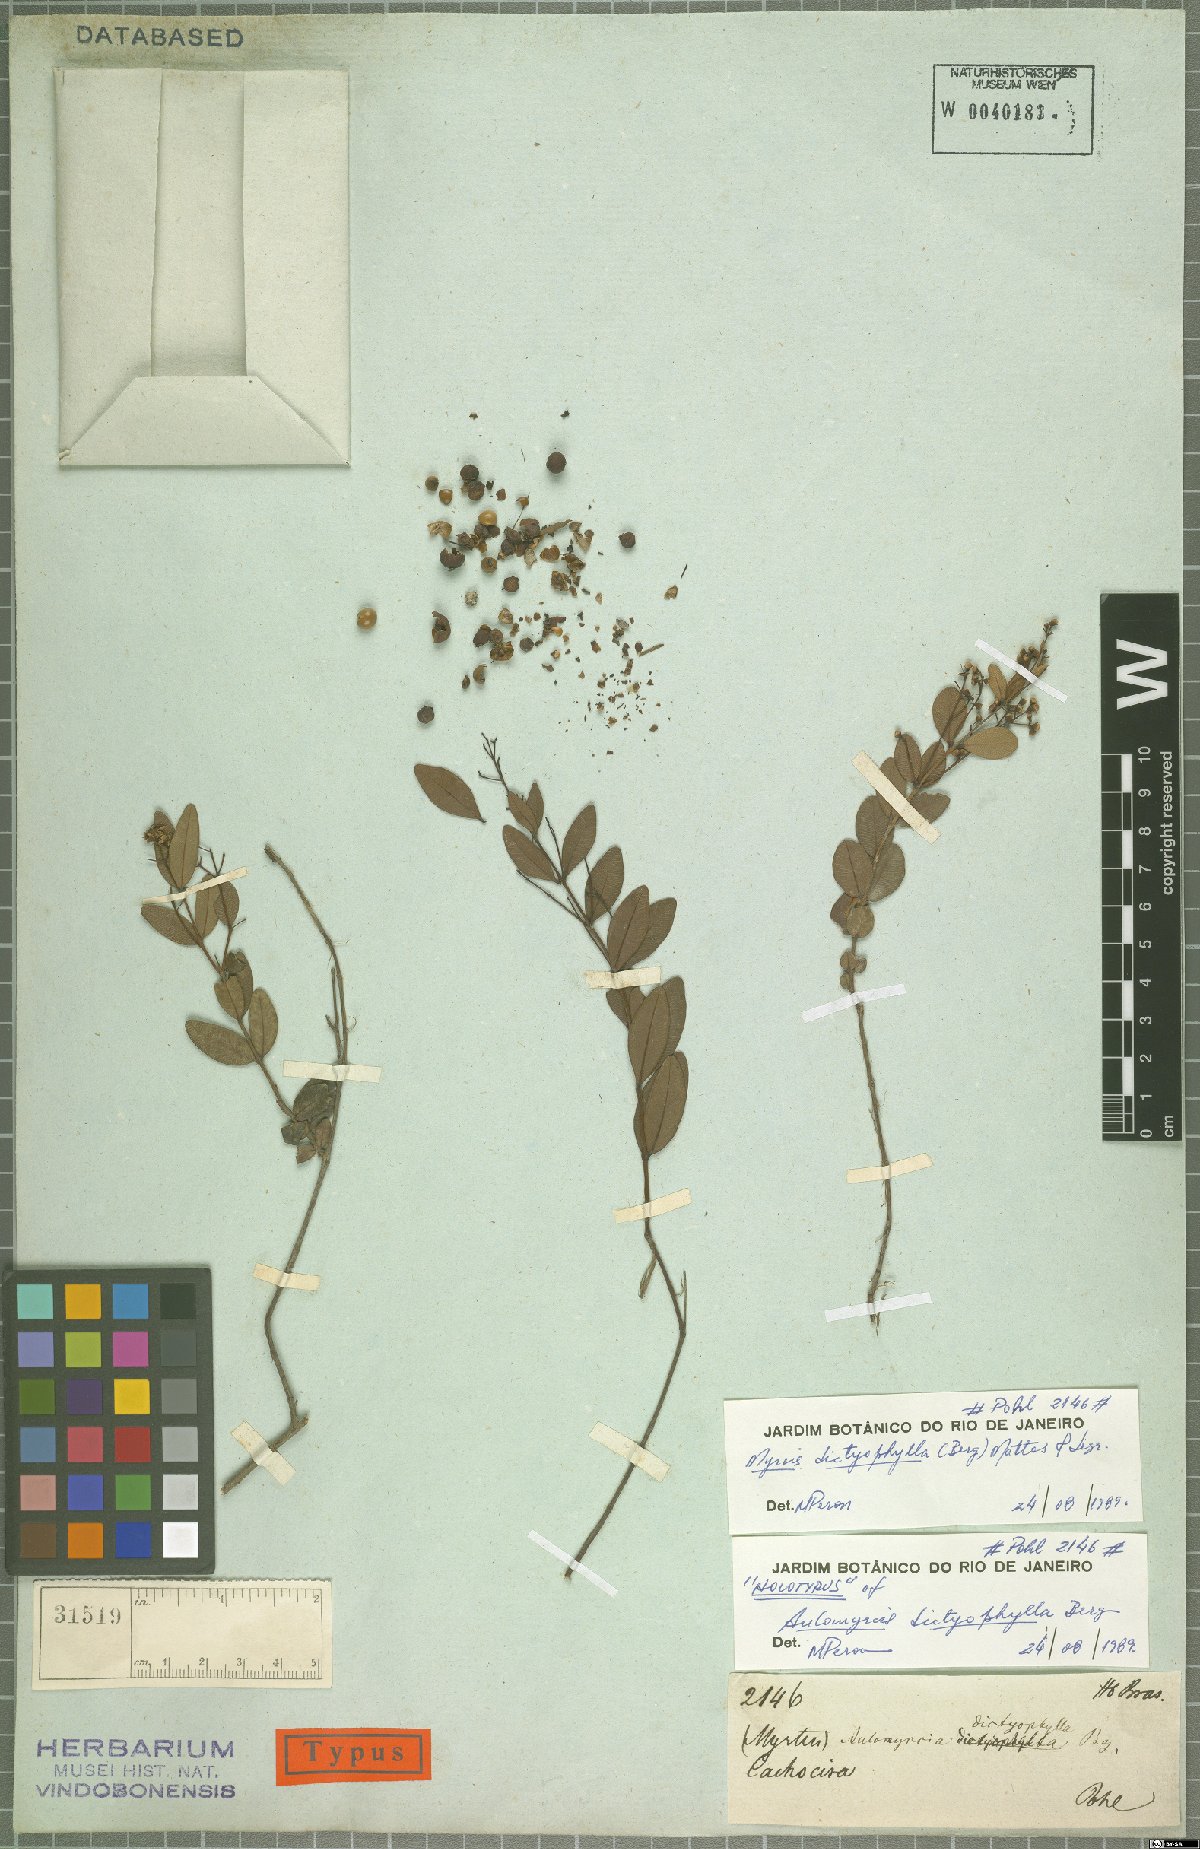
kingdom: Plantae
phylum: Tracheophyta
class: Magnoliopsida
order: Myrtales
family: Myrtaceae
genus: Myrcia
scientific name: Myrcia guianensis
